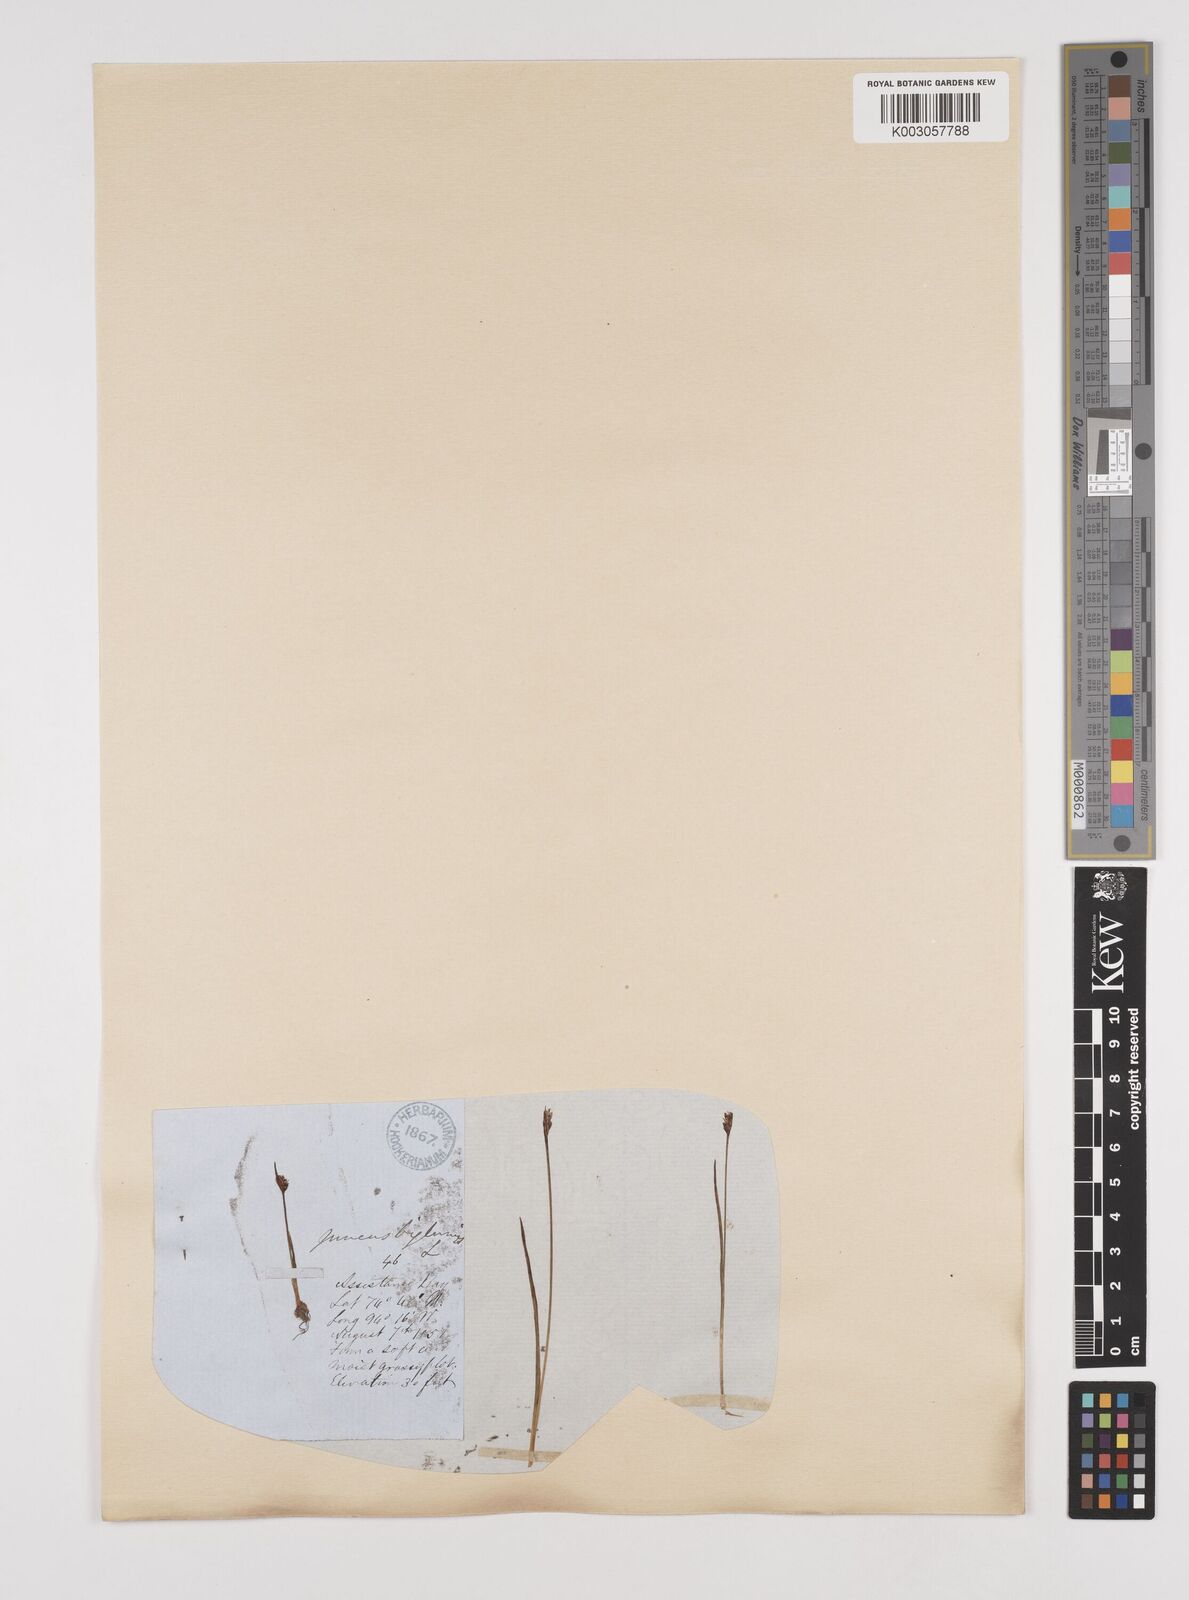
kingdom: Plantae
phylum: Tracheophyta
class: Liliopsida
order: Poales
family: Juncaceae
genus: Juncus
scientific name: Juncus biglumis
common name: Two-flowered rush
